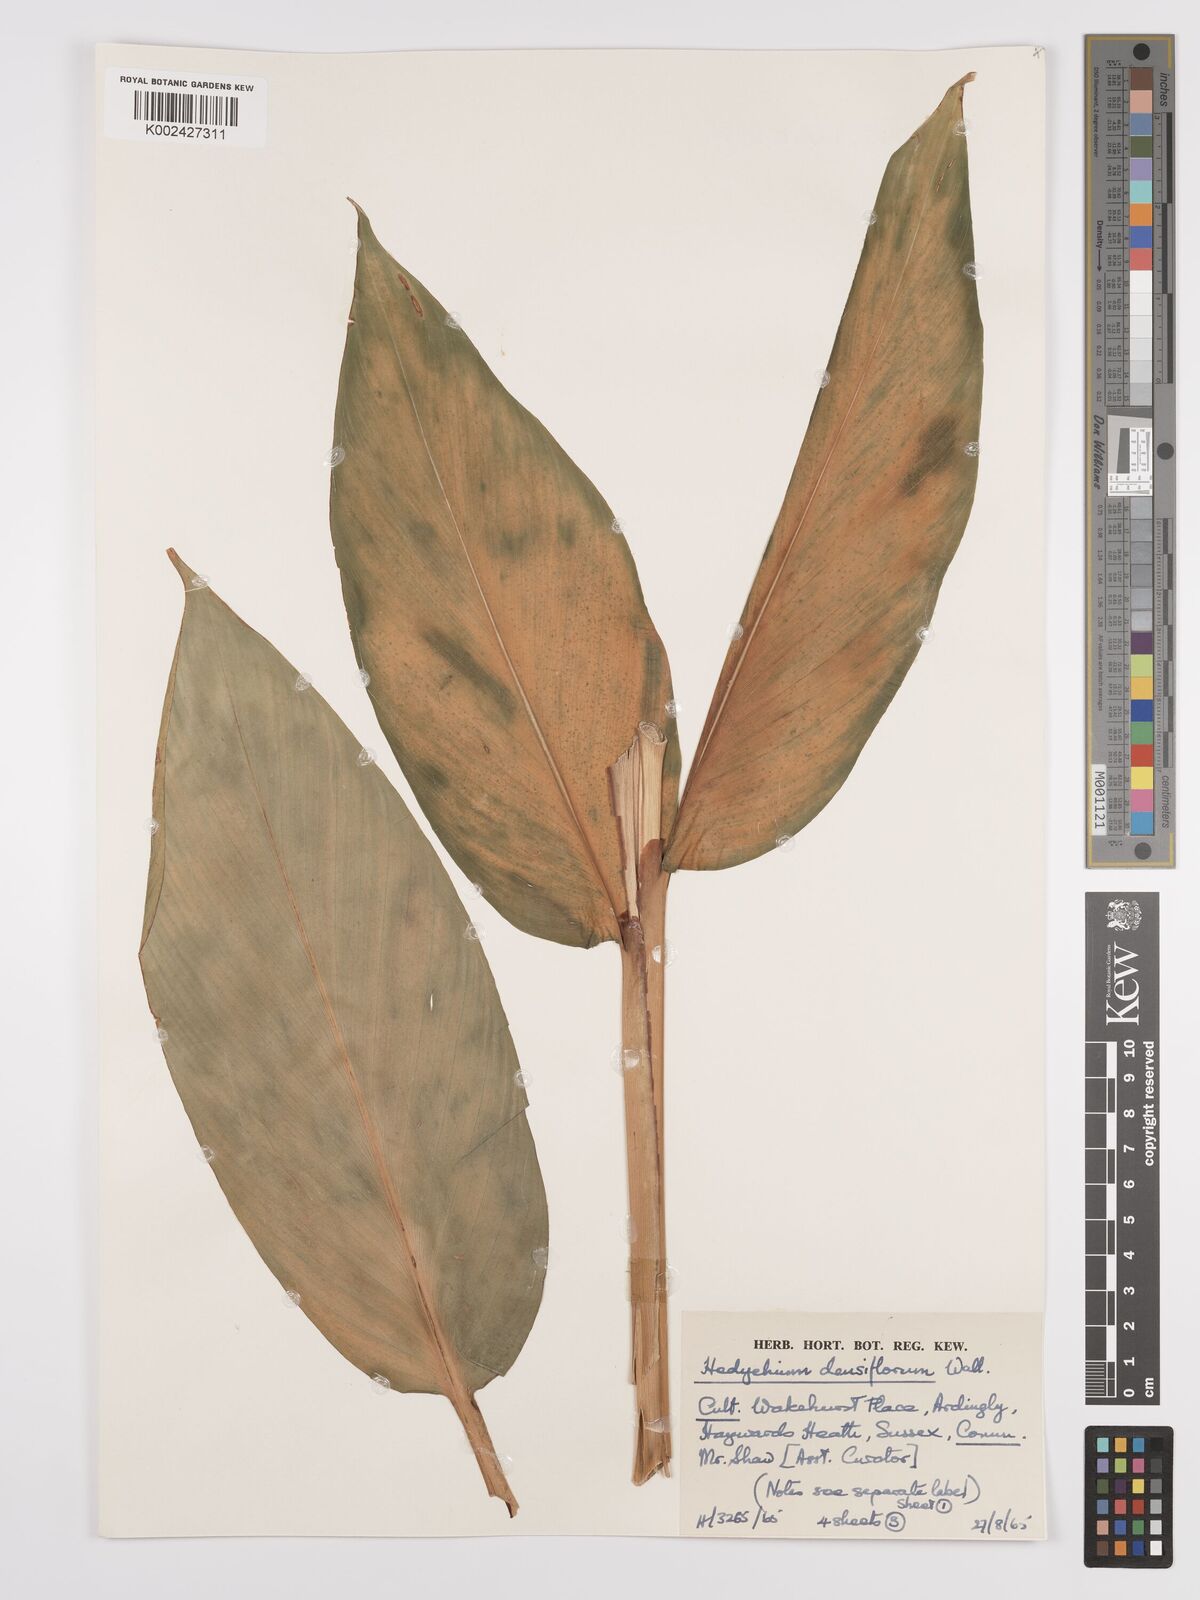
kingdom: Plantae
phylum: Tracheophyta
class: Liliopsida
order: Zingiberales
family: Zingiberaceae
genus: Hedychium
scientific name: Hedychium densiflorum
